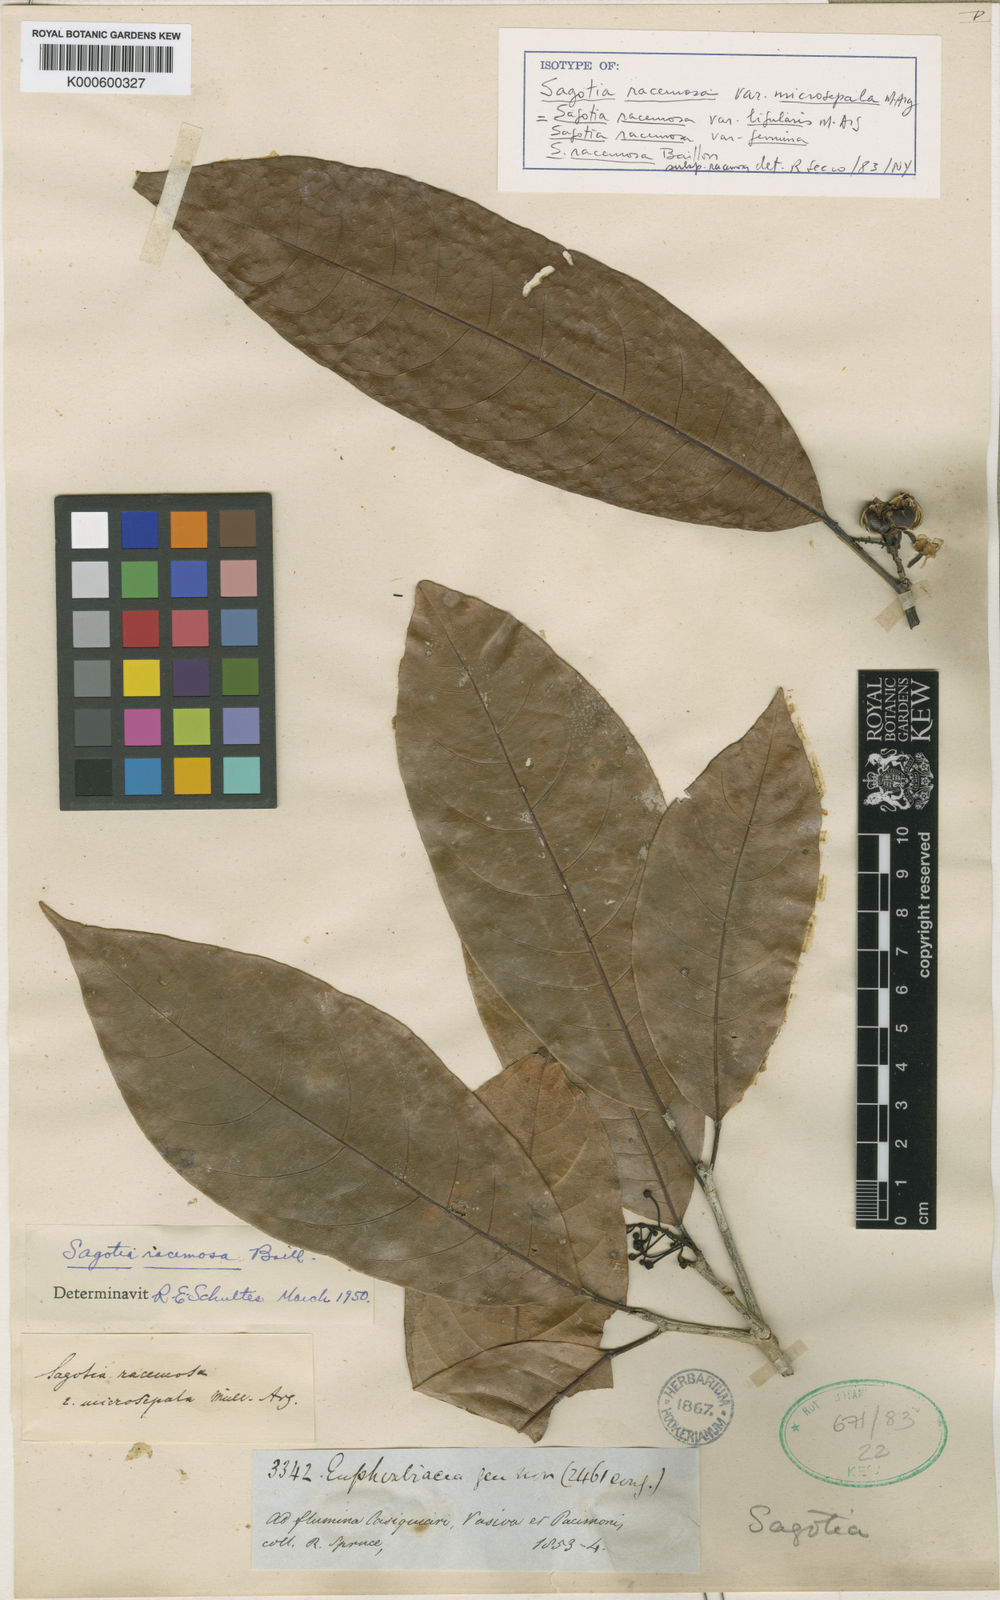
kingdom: Plantae
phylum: Tracheophyta
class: Magnoliopsida
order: Malpighiales
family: Euphorbiaceae
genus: Sagotia
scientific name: Sagotia racemosa
